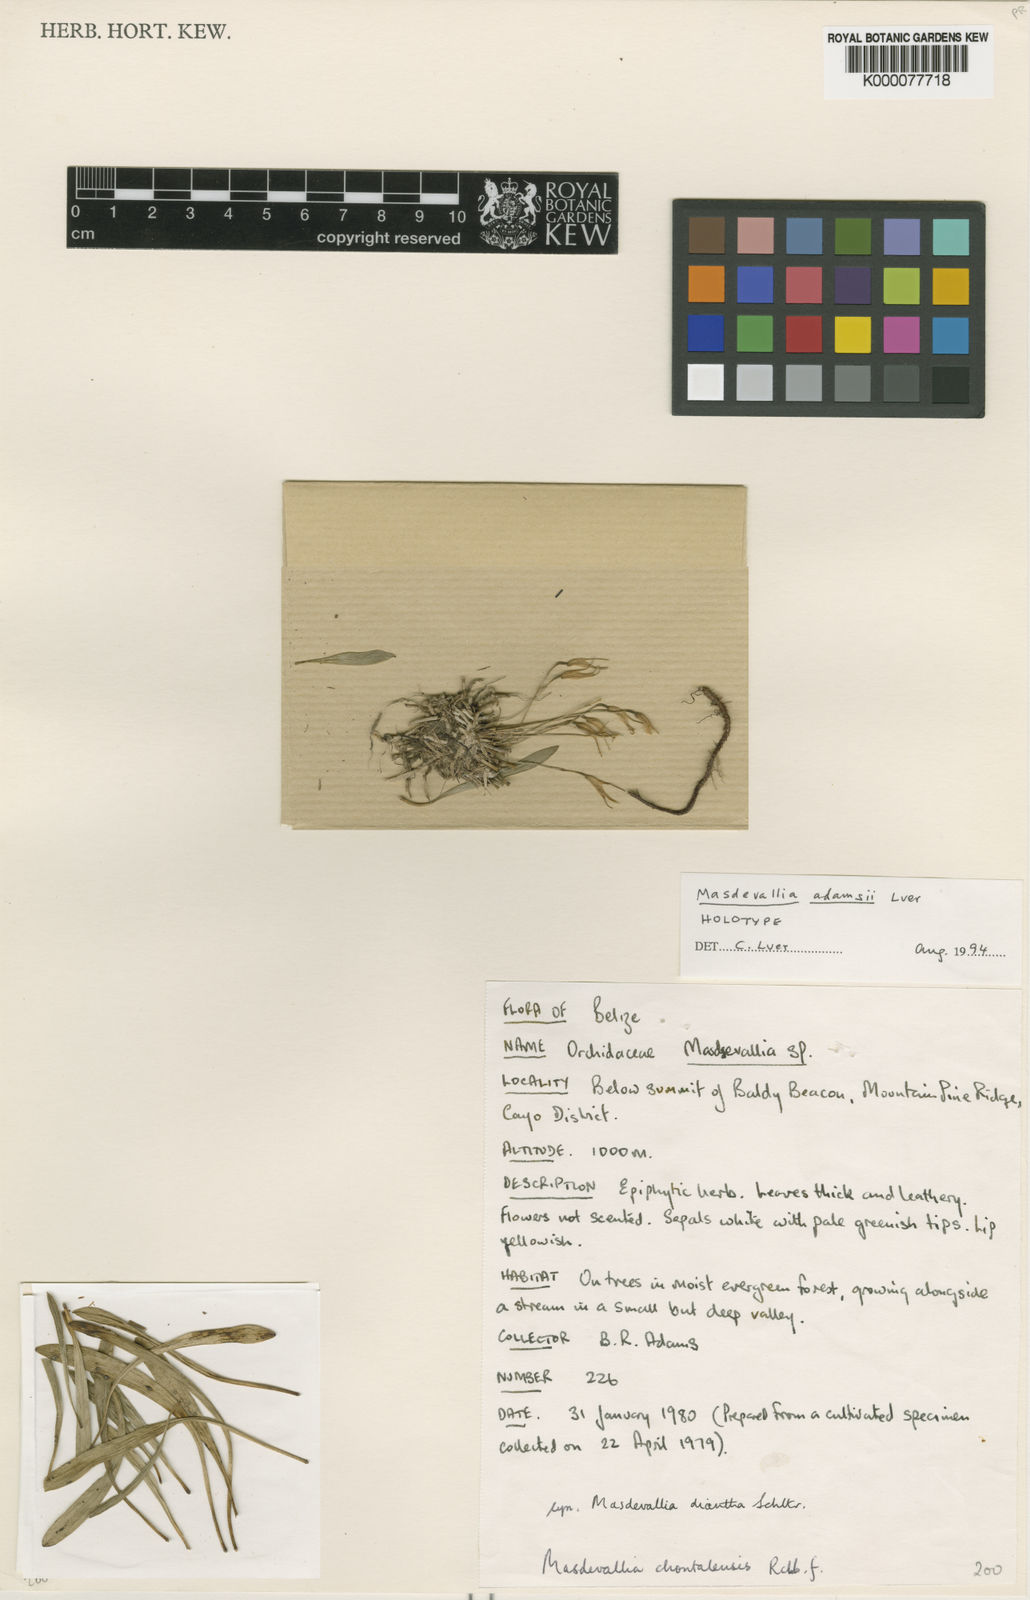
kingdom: Plantae
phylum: Tracheophyta
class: Liliopsida
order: Asparagales
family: Orchidaceae
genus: Masdevallia
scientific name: Masdevallia adamsii
